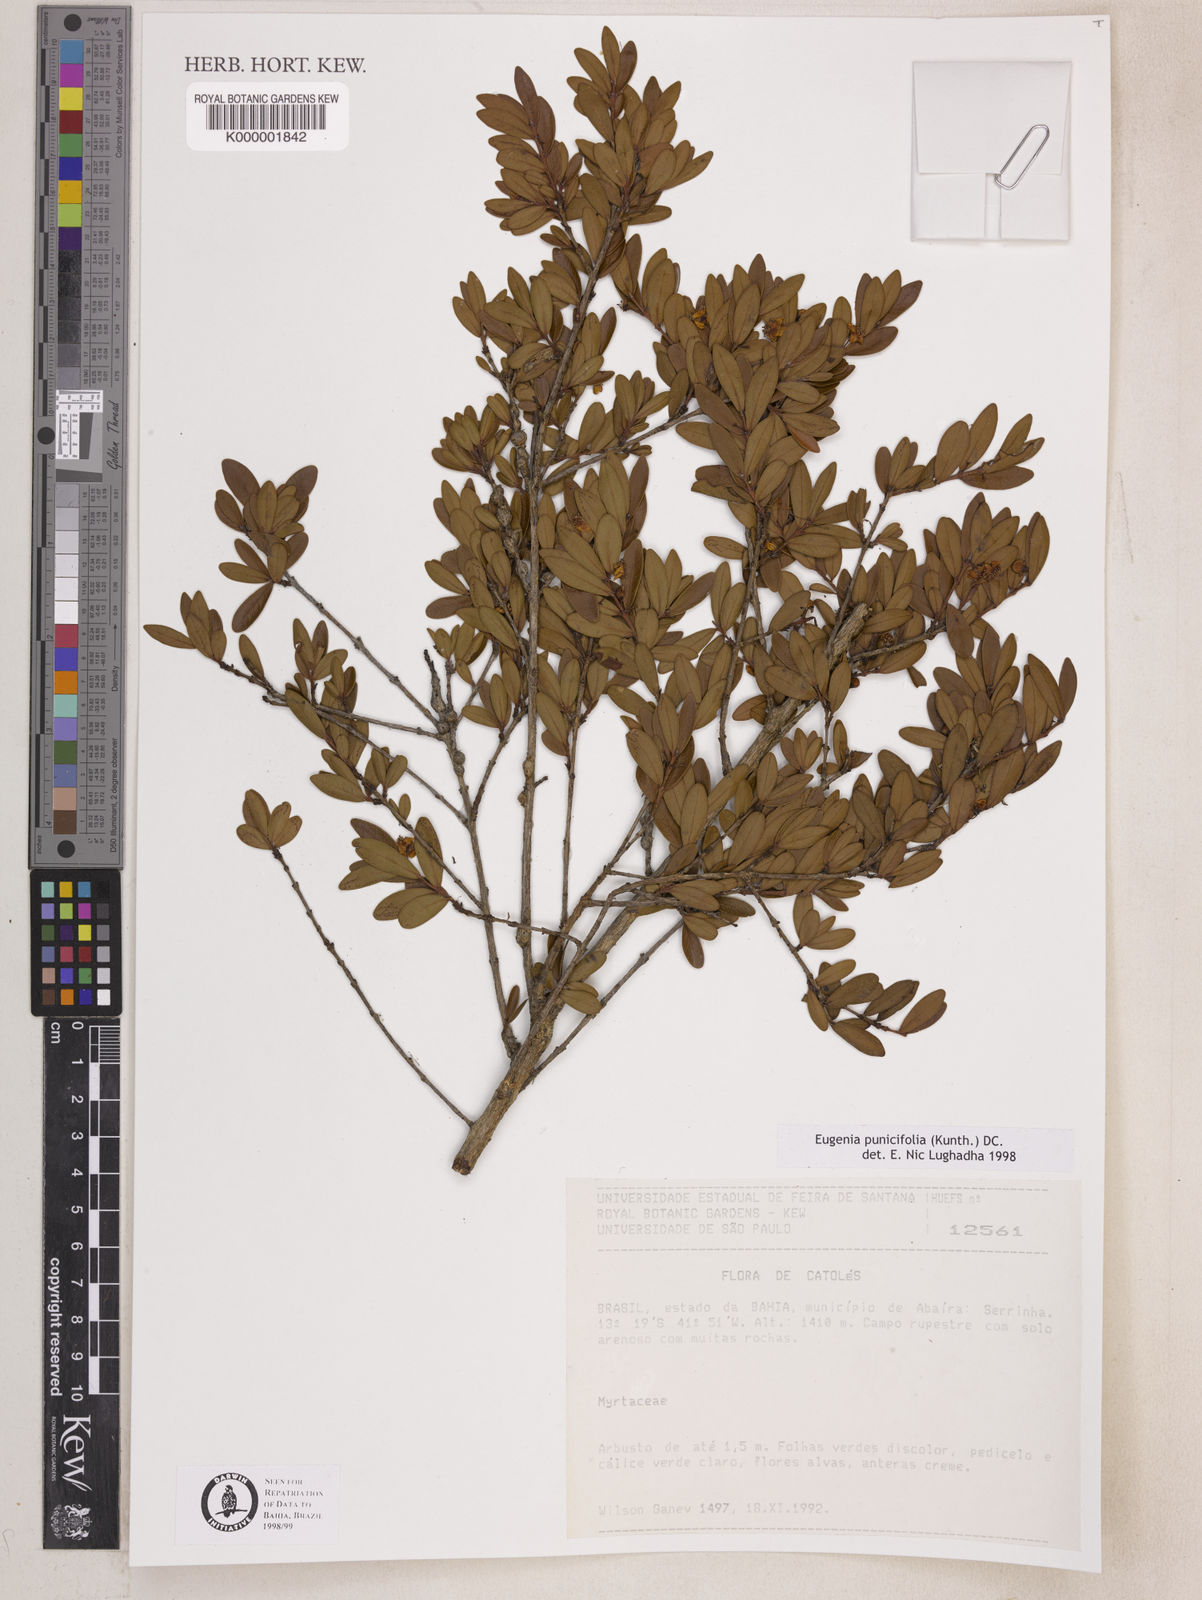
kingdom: Plantae
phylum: Tracheophyta
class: Magnoliopsida
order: Myrtales
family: Myrtaceae
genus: Eugenia
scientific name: Eugenia punicifolia
